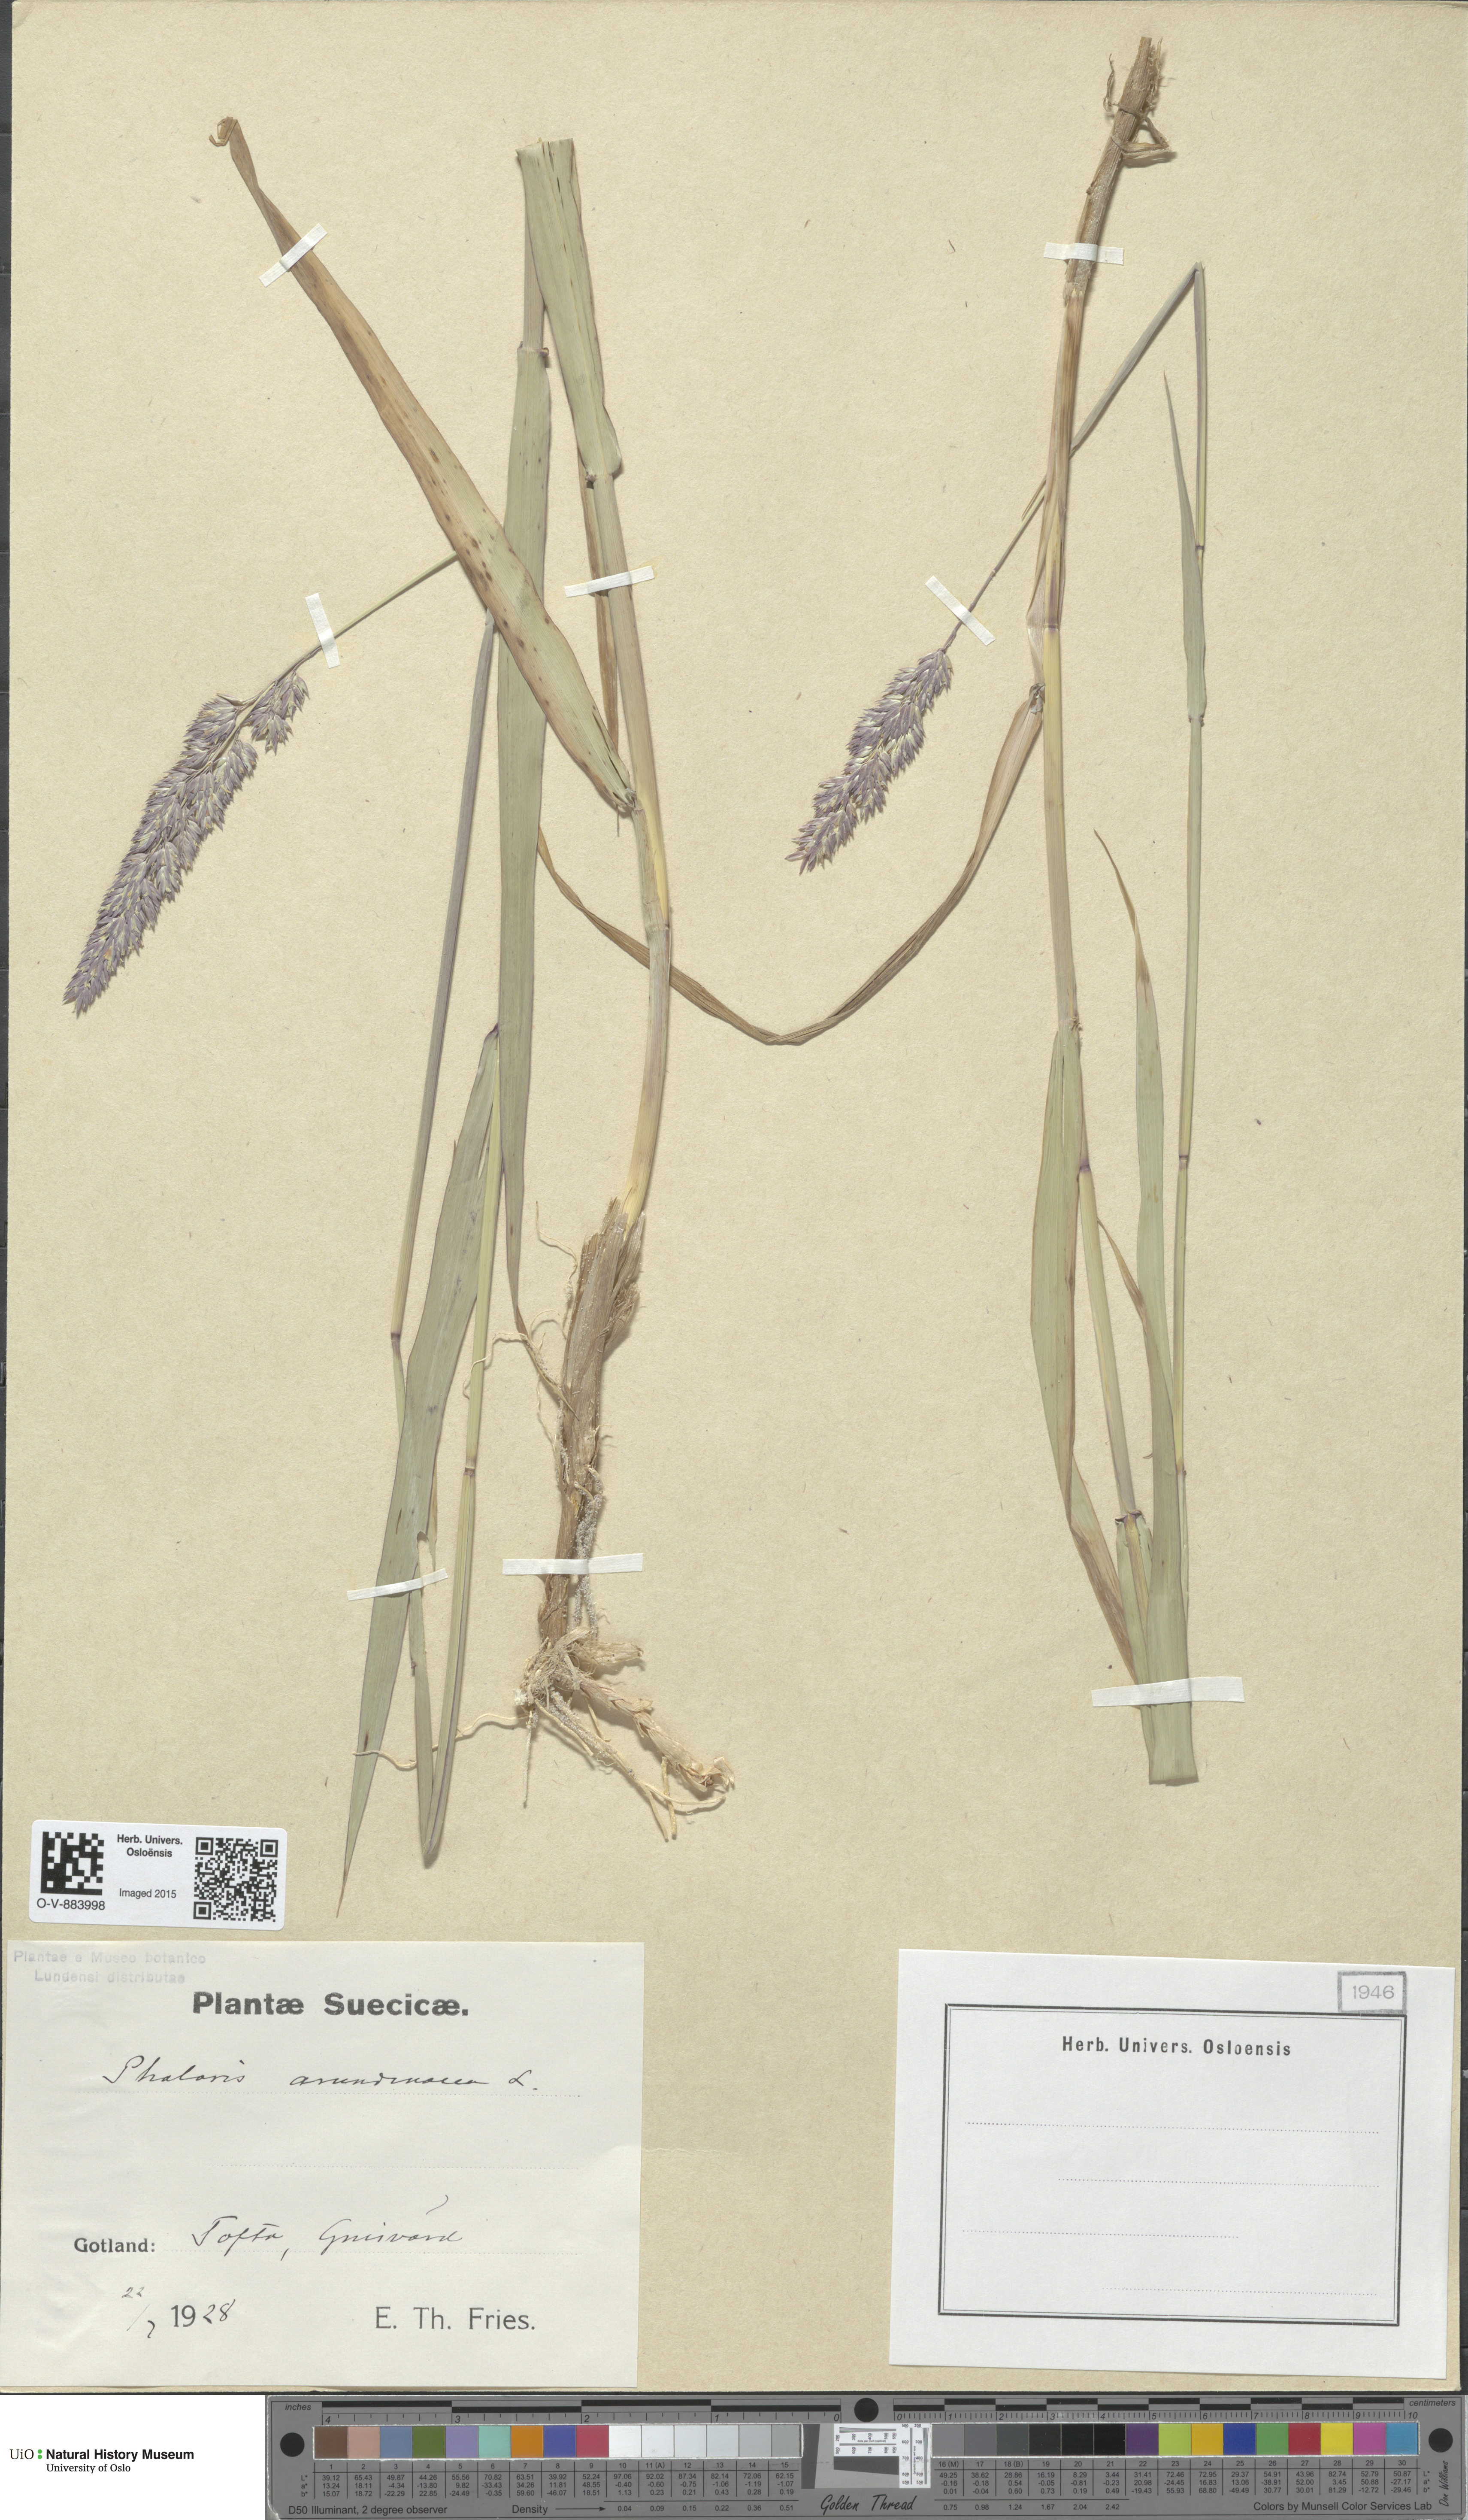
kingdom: Plantae
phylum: Tracheophyta
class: Liliopsida
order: Poales
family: Poaceae
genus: Phalaris
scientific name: Phalaris arundinacea
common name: Reed canary-grass
